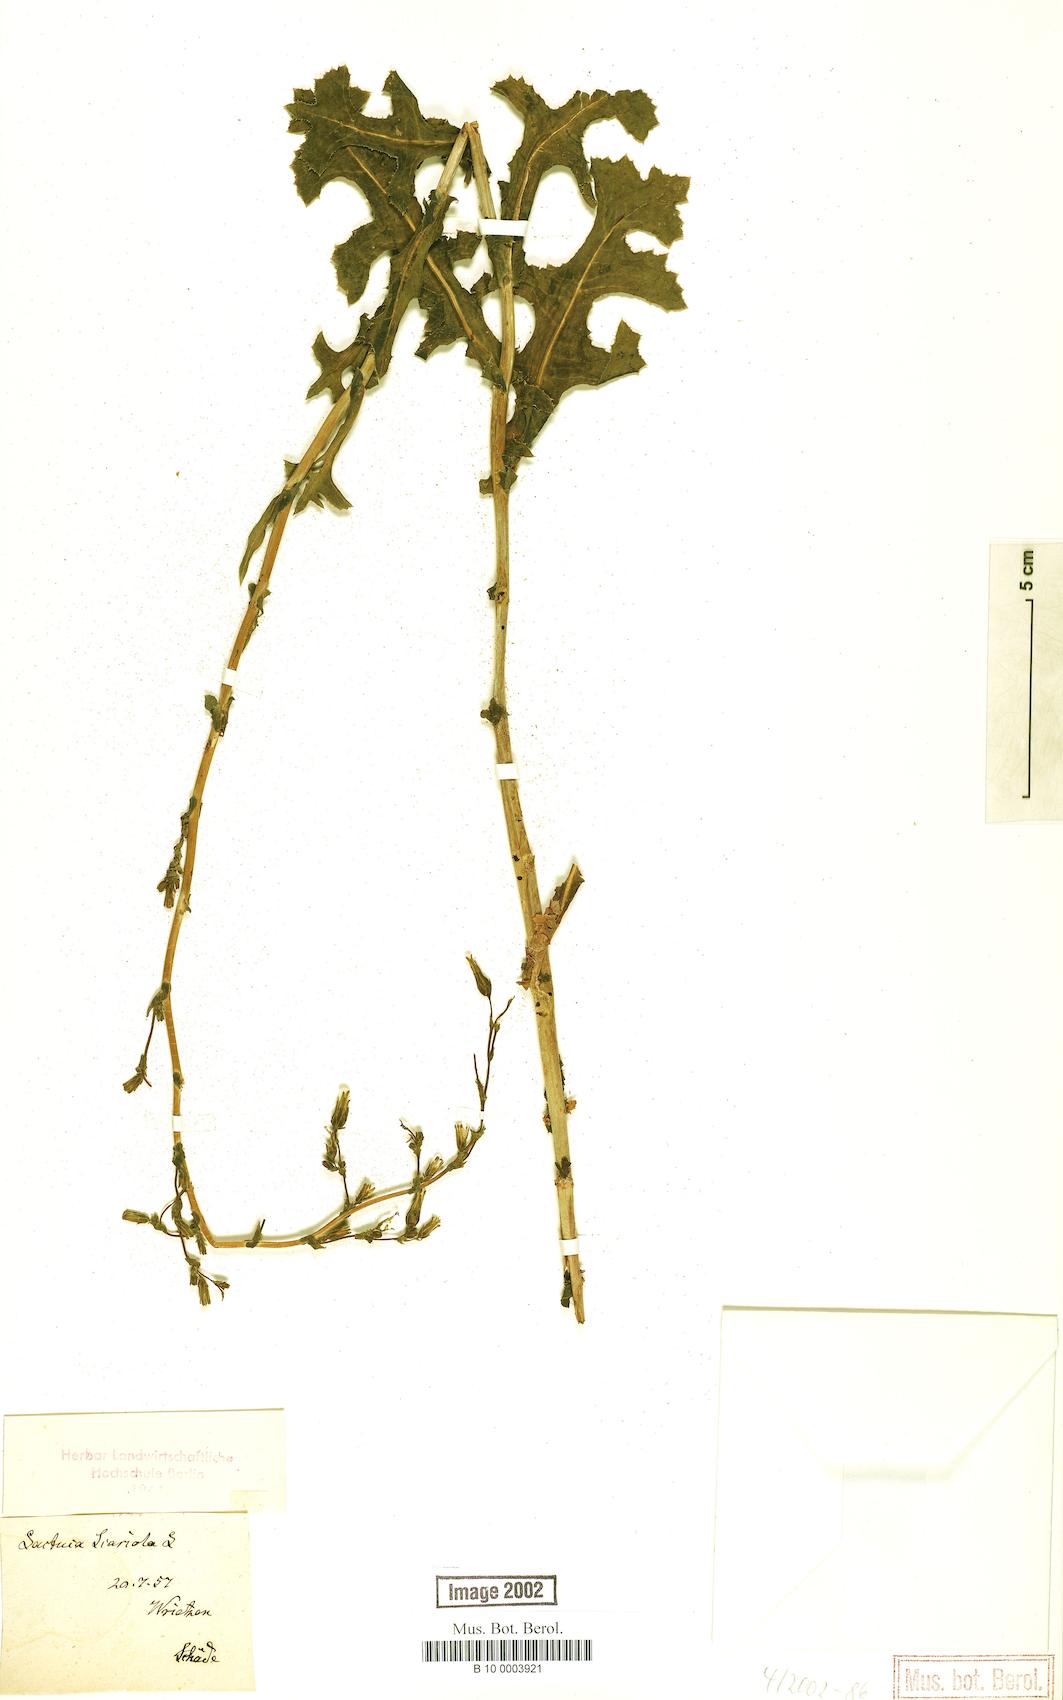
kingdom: Plantae
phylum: Tracheophyta
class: Magnoliopsida
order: Asterales
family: Asteraceae
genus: Lactuca
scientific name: Lactuca serriola
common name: Prickly lettuce
